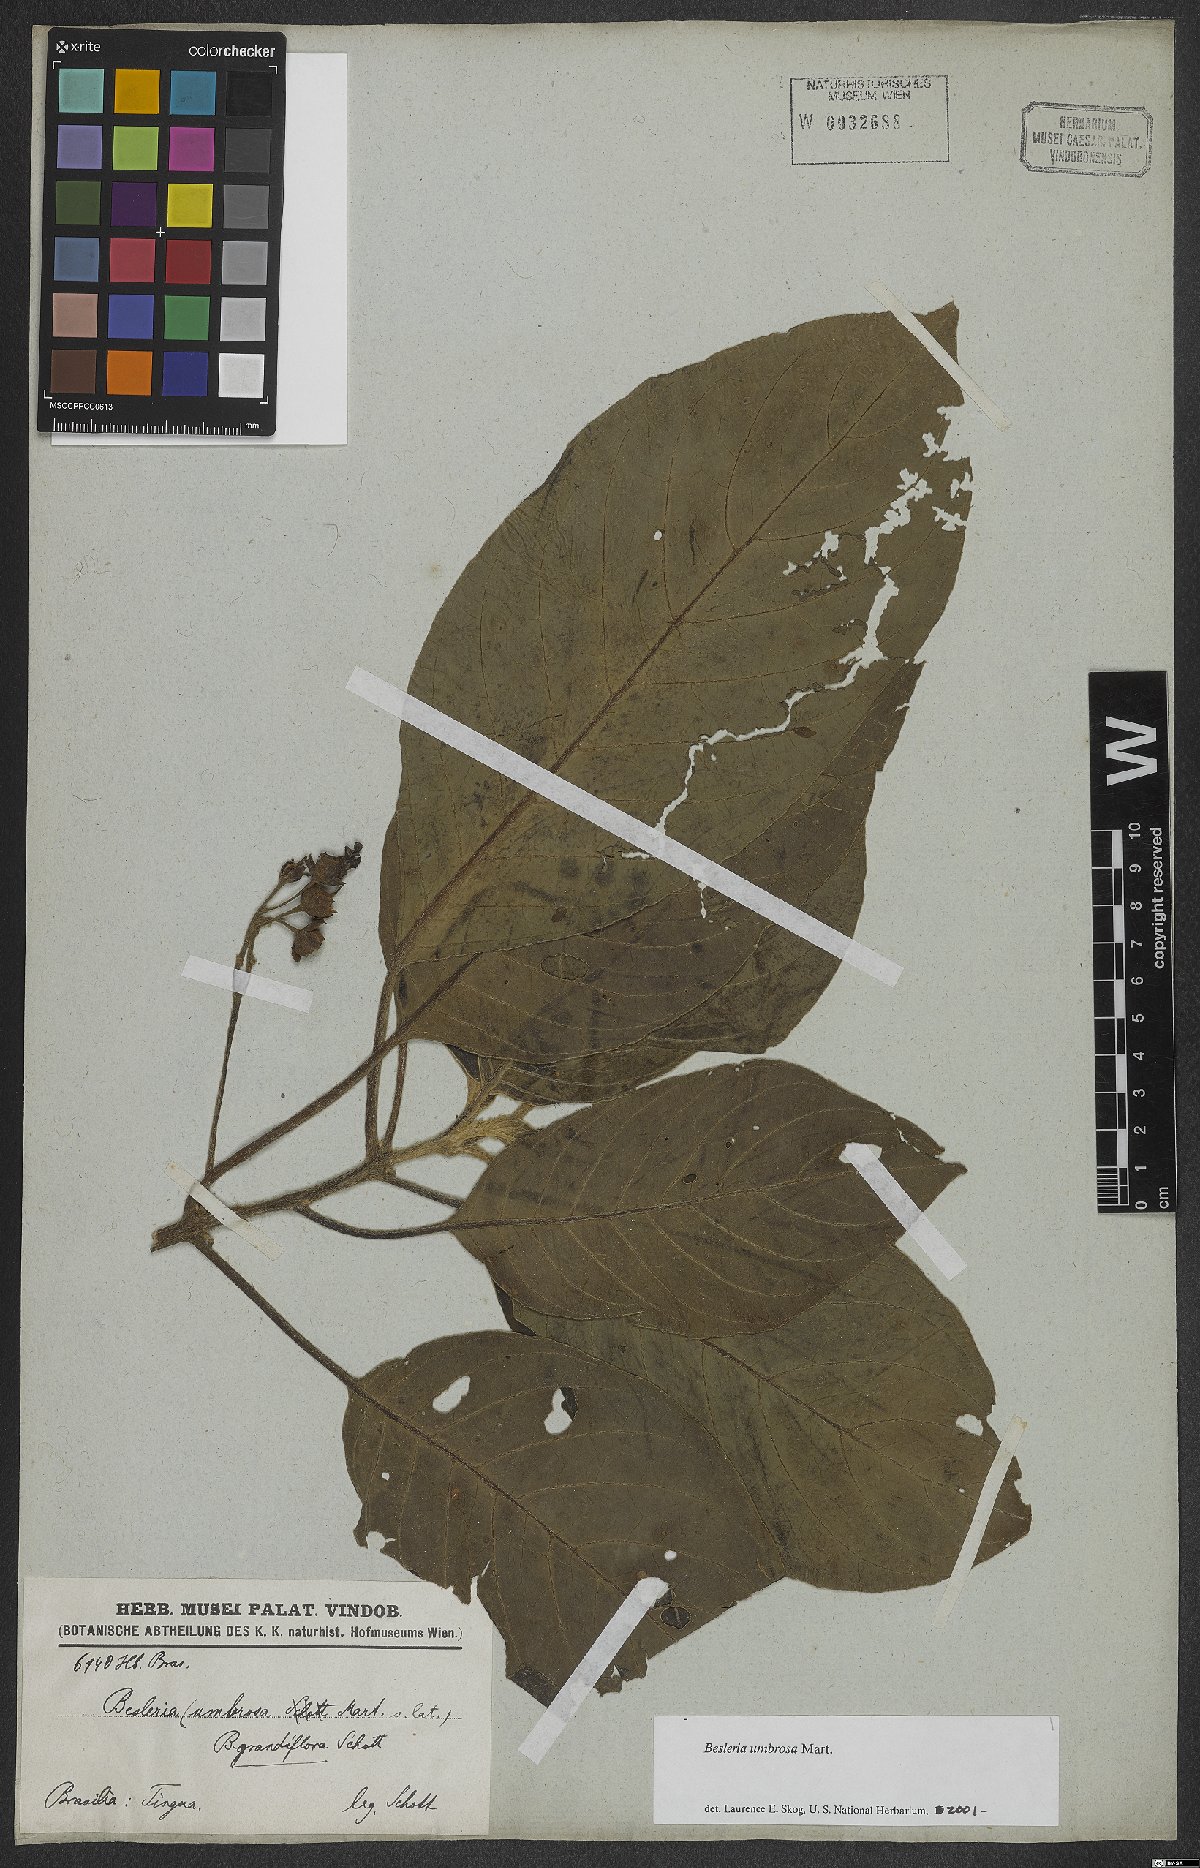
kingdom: Plantae
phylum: Tracheophyta
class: Magnoliopsida
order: Lamiales
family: Gesneriaceae
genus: Besleria
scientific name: Besleria umbrosa
